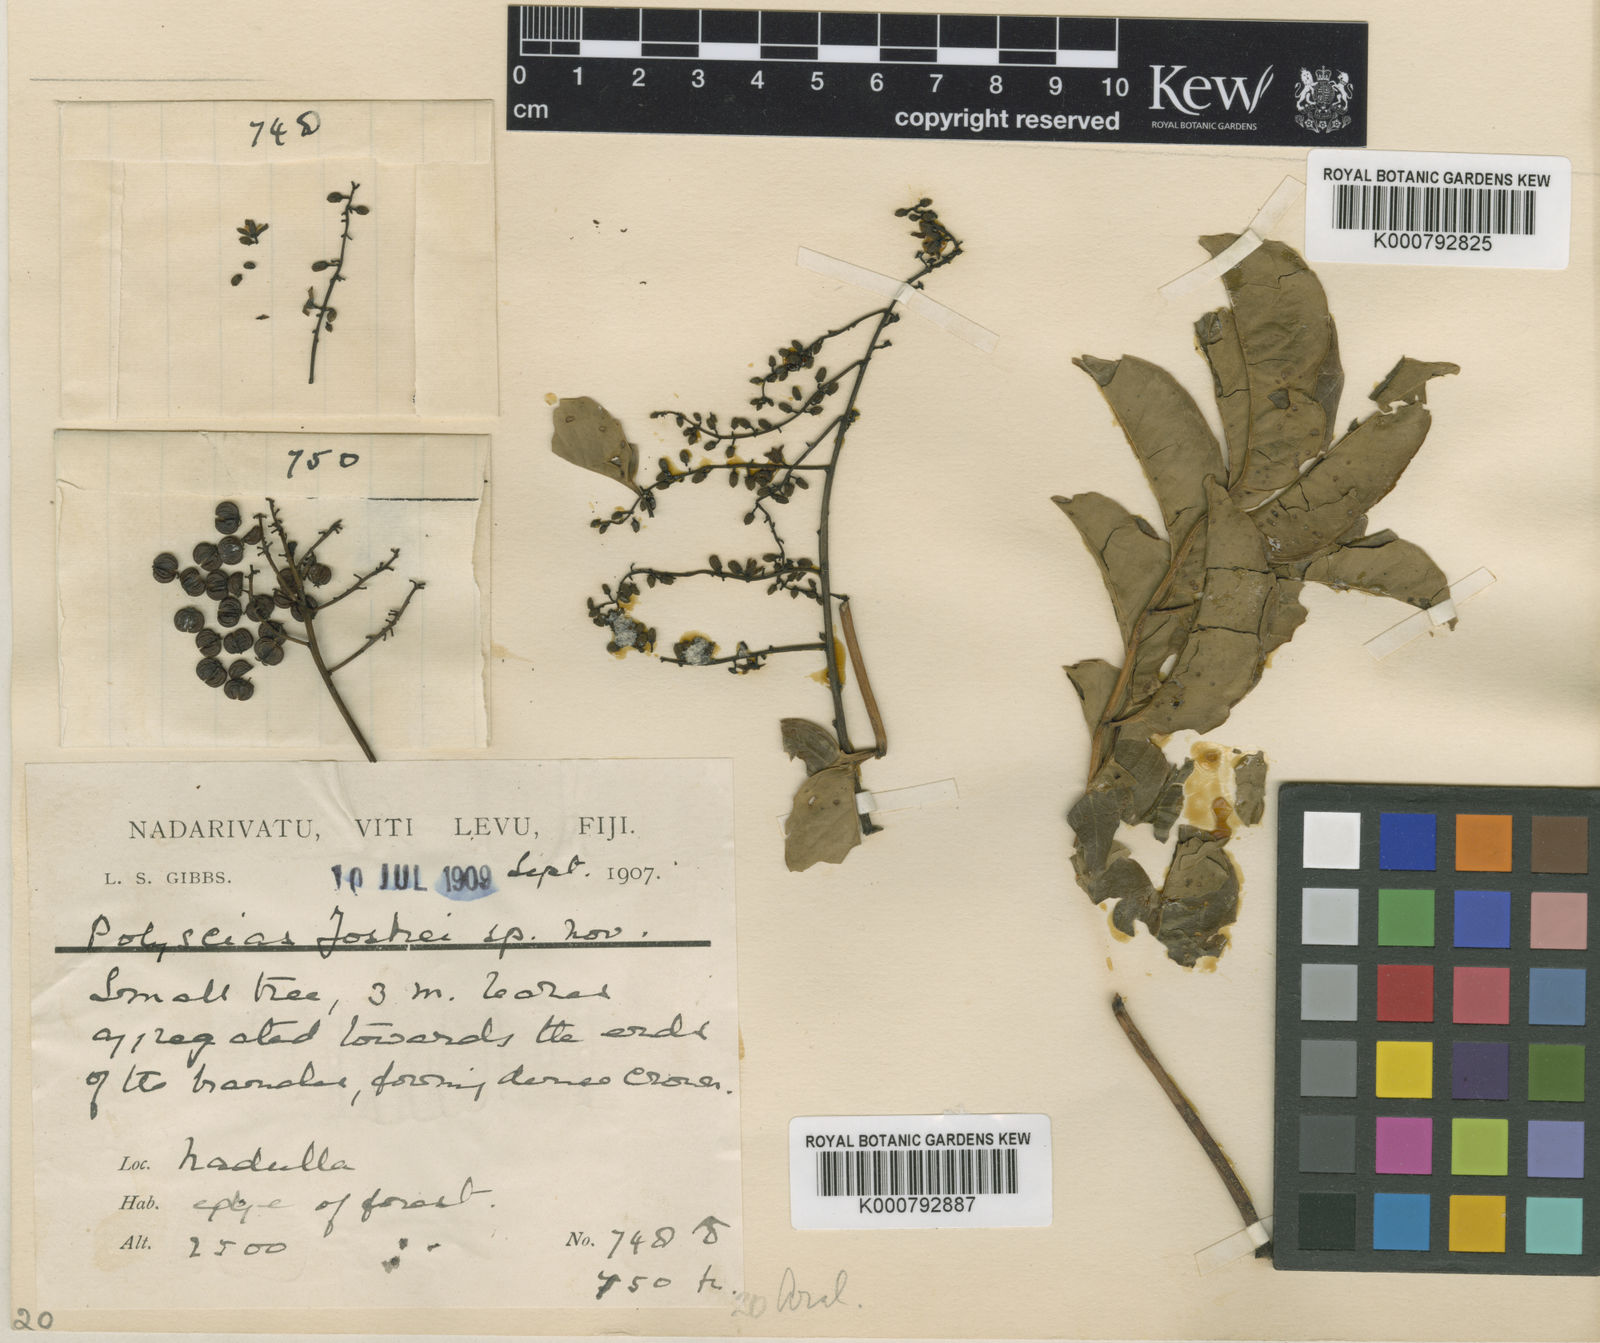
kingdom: Plantae
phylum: Tracheophyta
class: Magnoliopsida
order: Apiales
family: Araliaceae
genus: Polyscias
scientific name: Polyscias joskei
